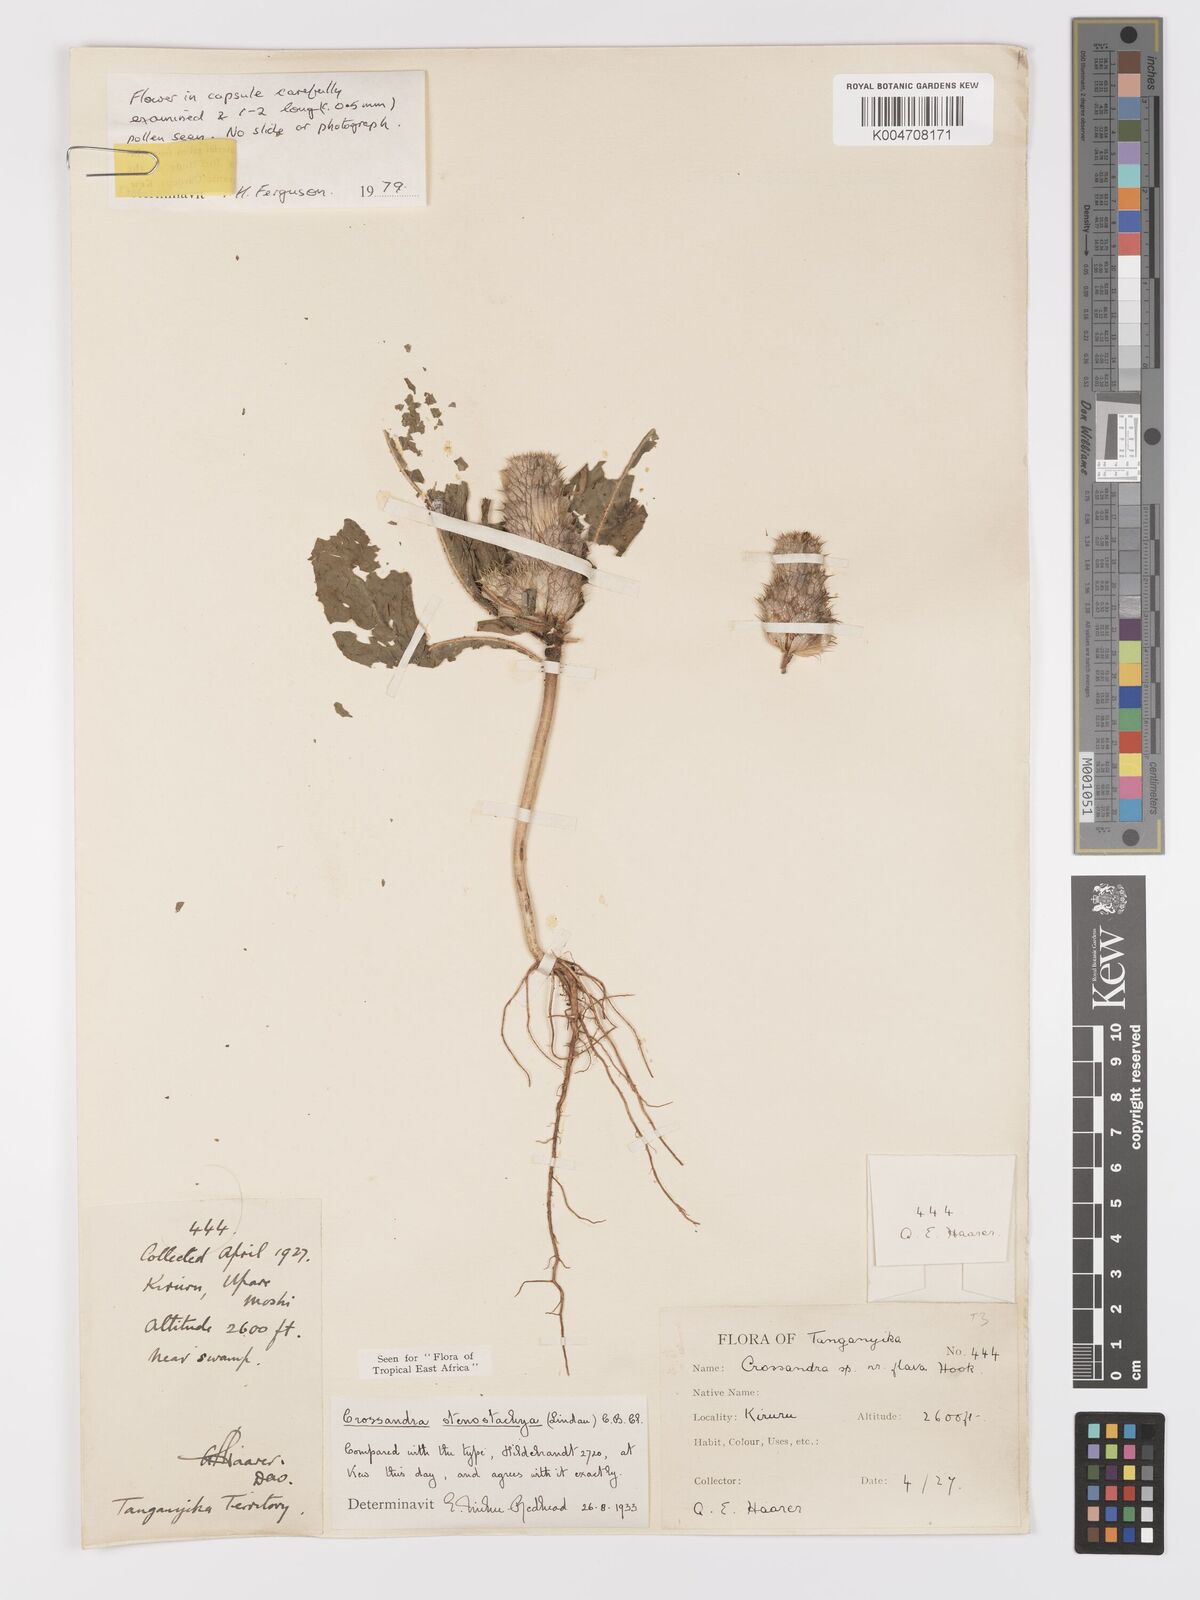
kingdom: Plantae
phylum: Tracheophyta
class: Magnoliopsida
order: Lamiales
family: Acanthaceae
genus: Crossandra
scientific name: Crossandra stenostachya
